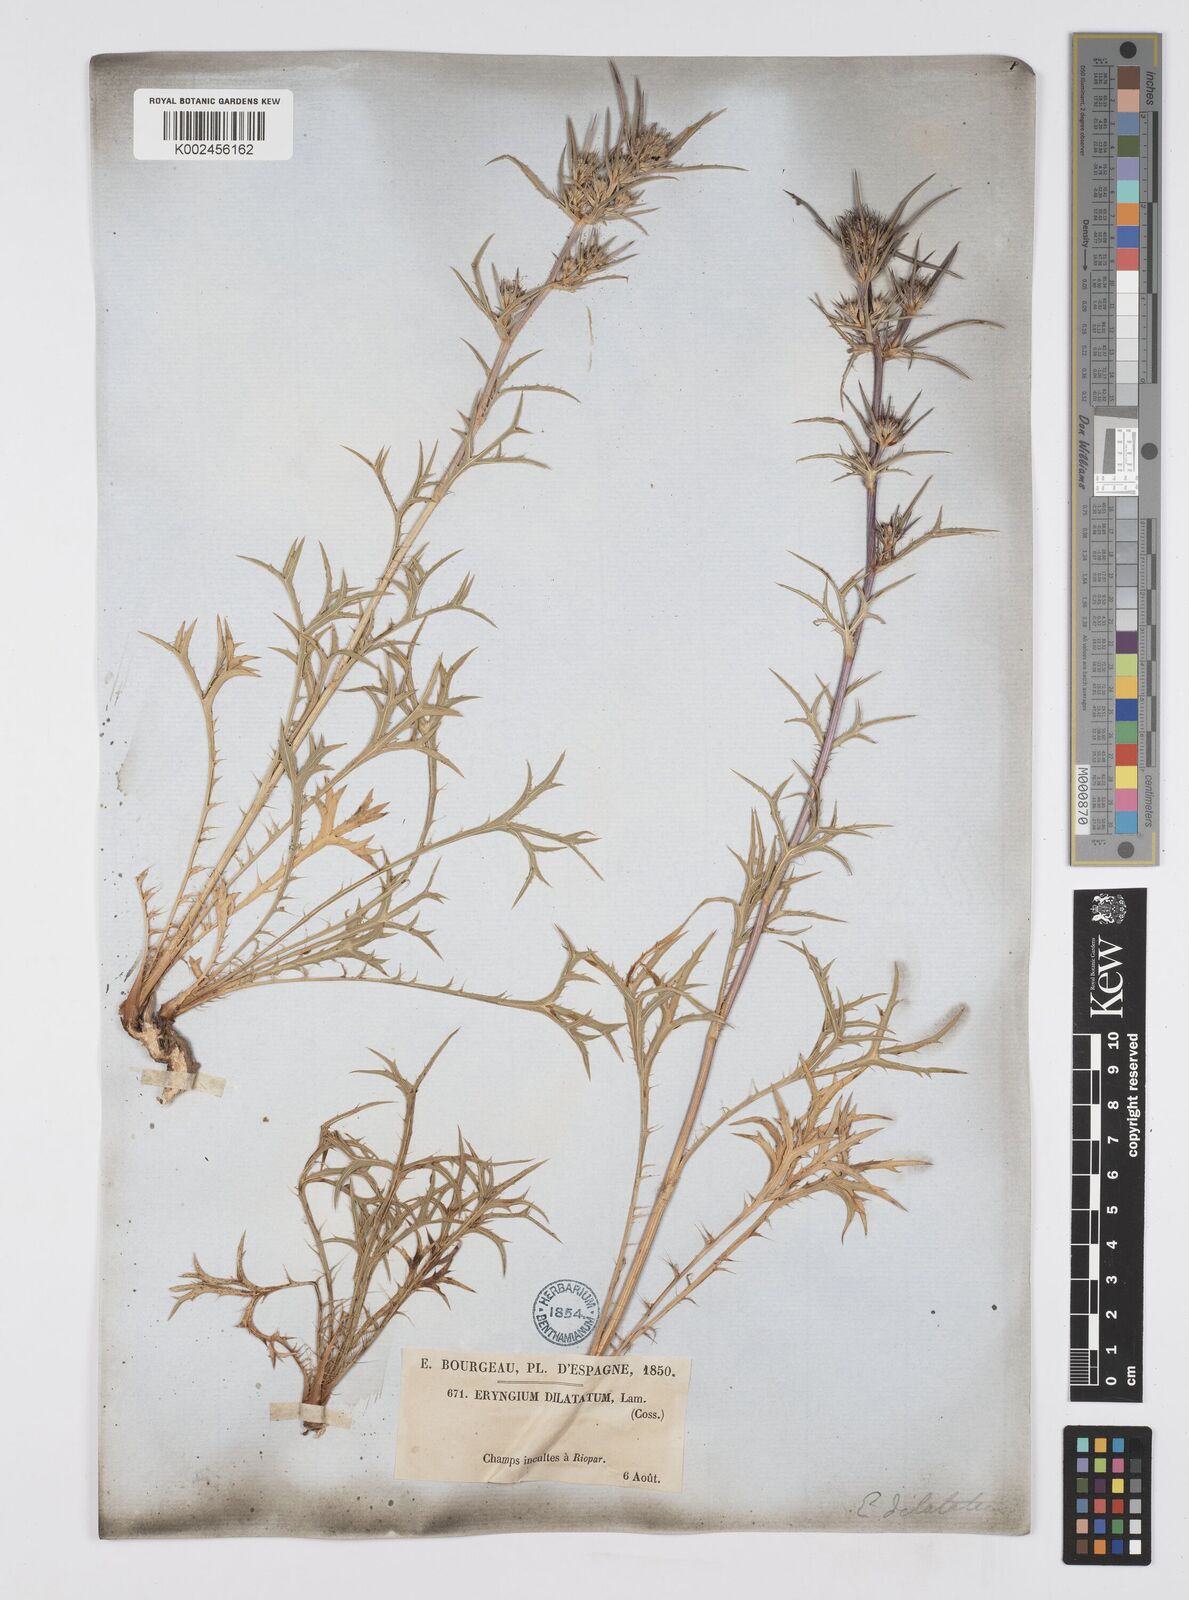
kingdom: Plantae
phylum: Tracheophyta
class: Magnoliopsida
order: Apiales
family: Apiaceae
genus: Eryngium
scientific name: Eryngium dilatatum
